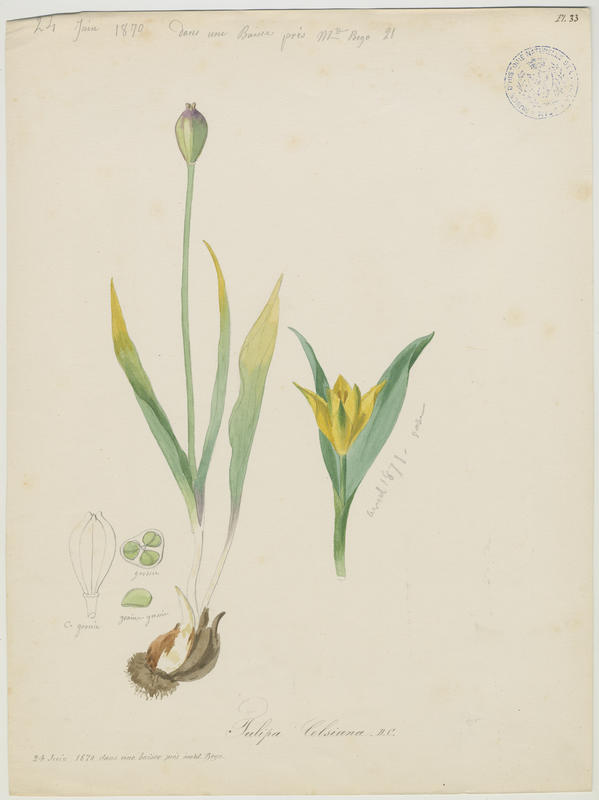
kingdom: Plantae
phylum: Tracheophyta
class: Liliopsida
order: Liliales
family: Liliaceae
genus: Tulipa
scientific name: Tulipa sylvestris
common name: Wild tulip
